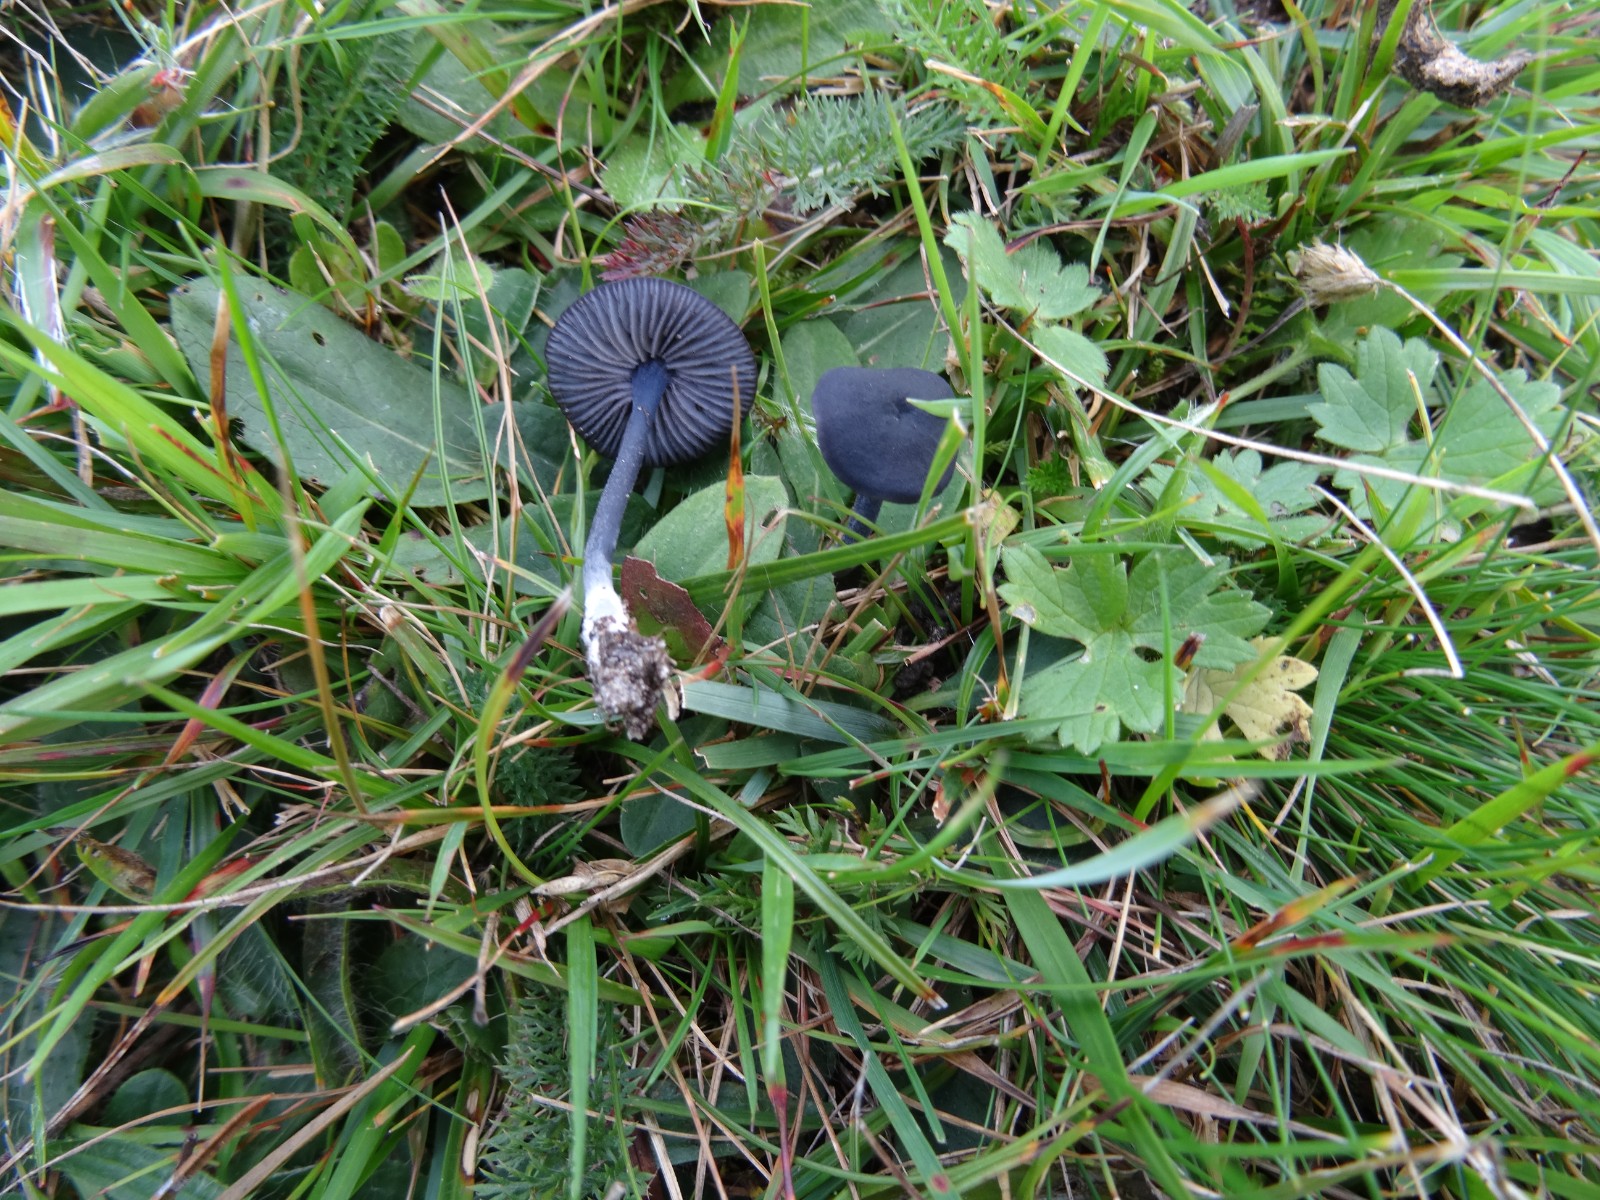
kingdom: Fungi
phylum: Basidiomycota
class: Agaricomycetes
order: Agaricales
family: Entolomataceae
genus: Entoloma
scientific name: Entoloma
